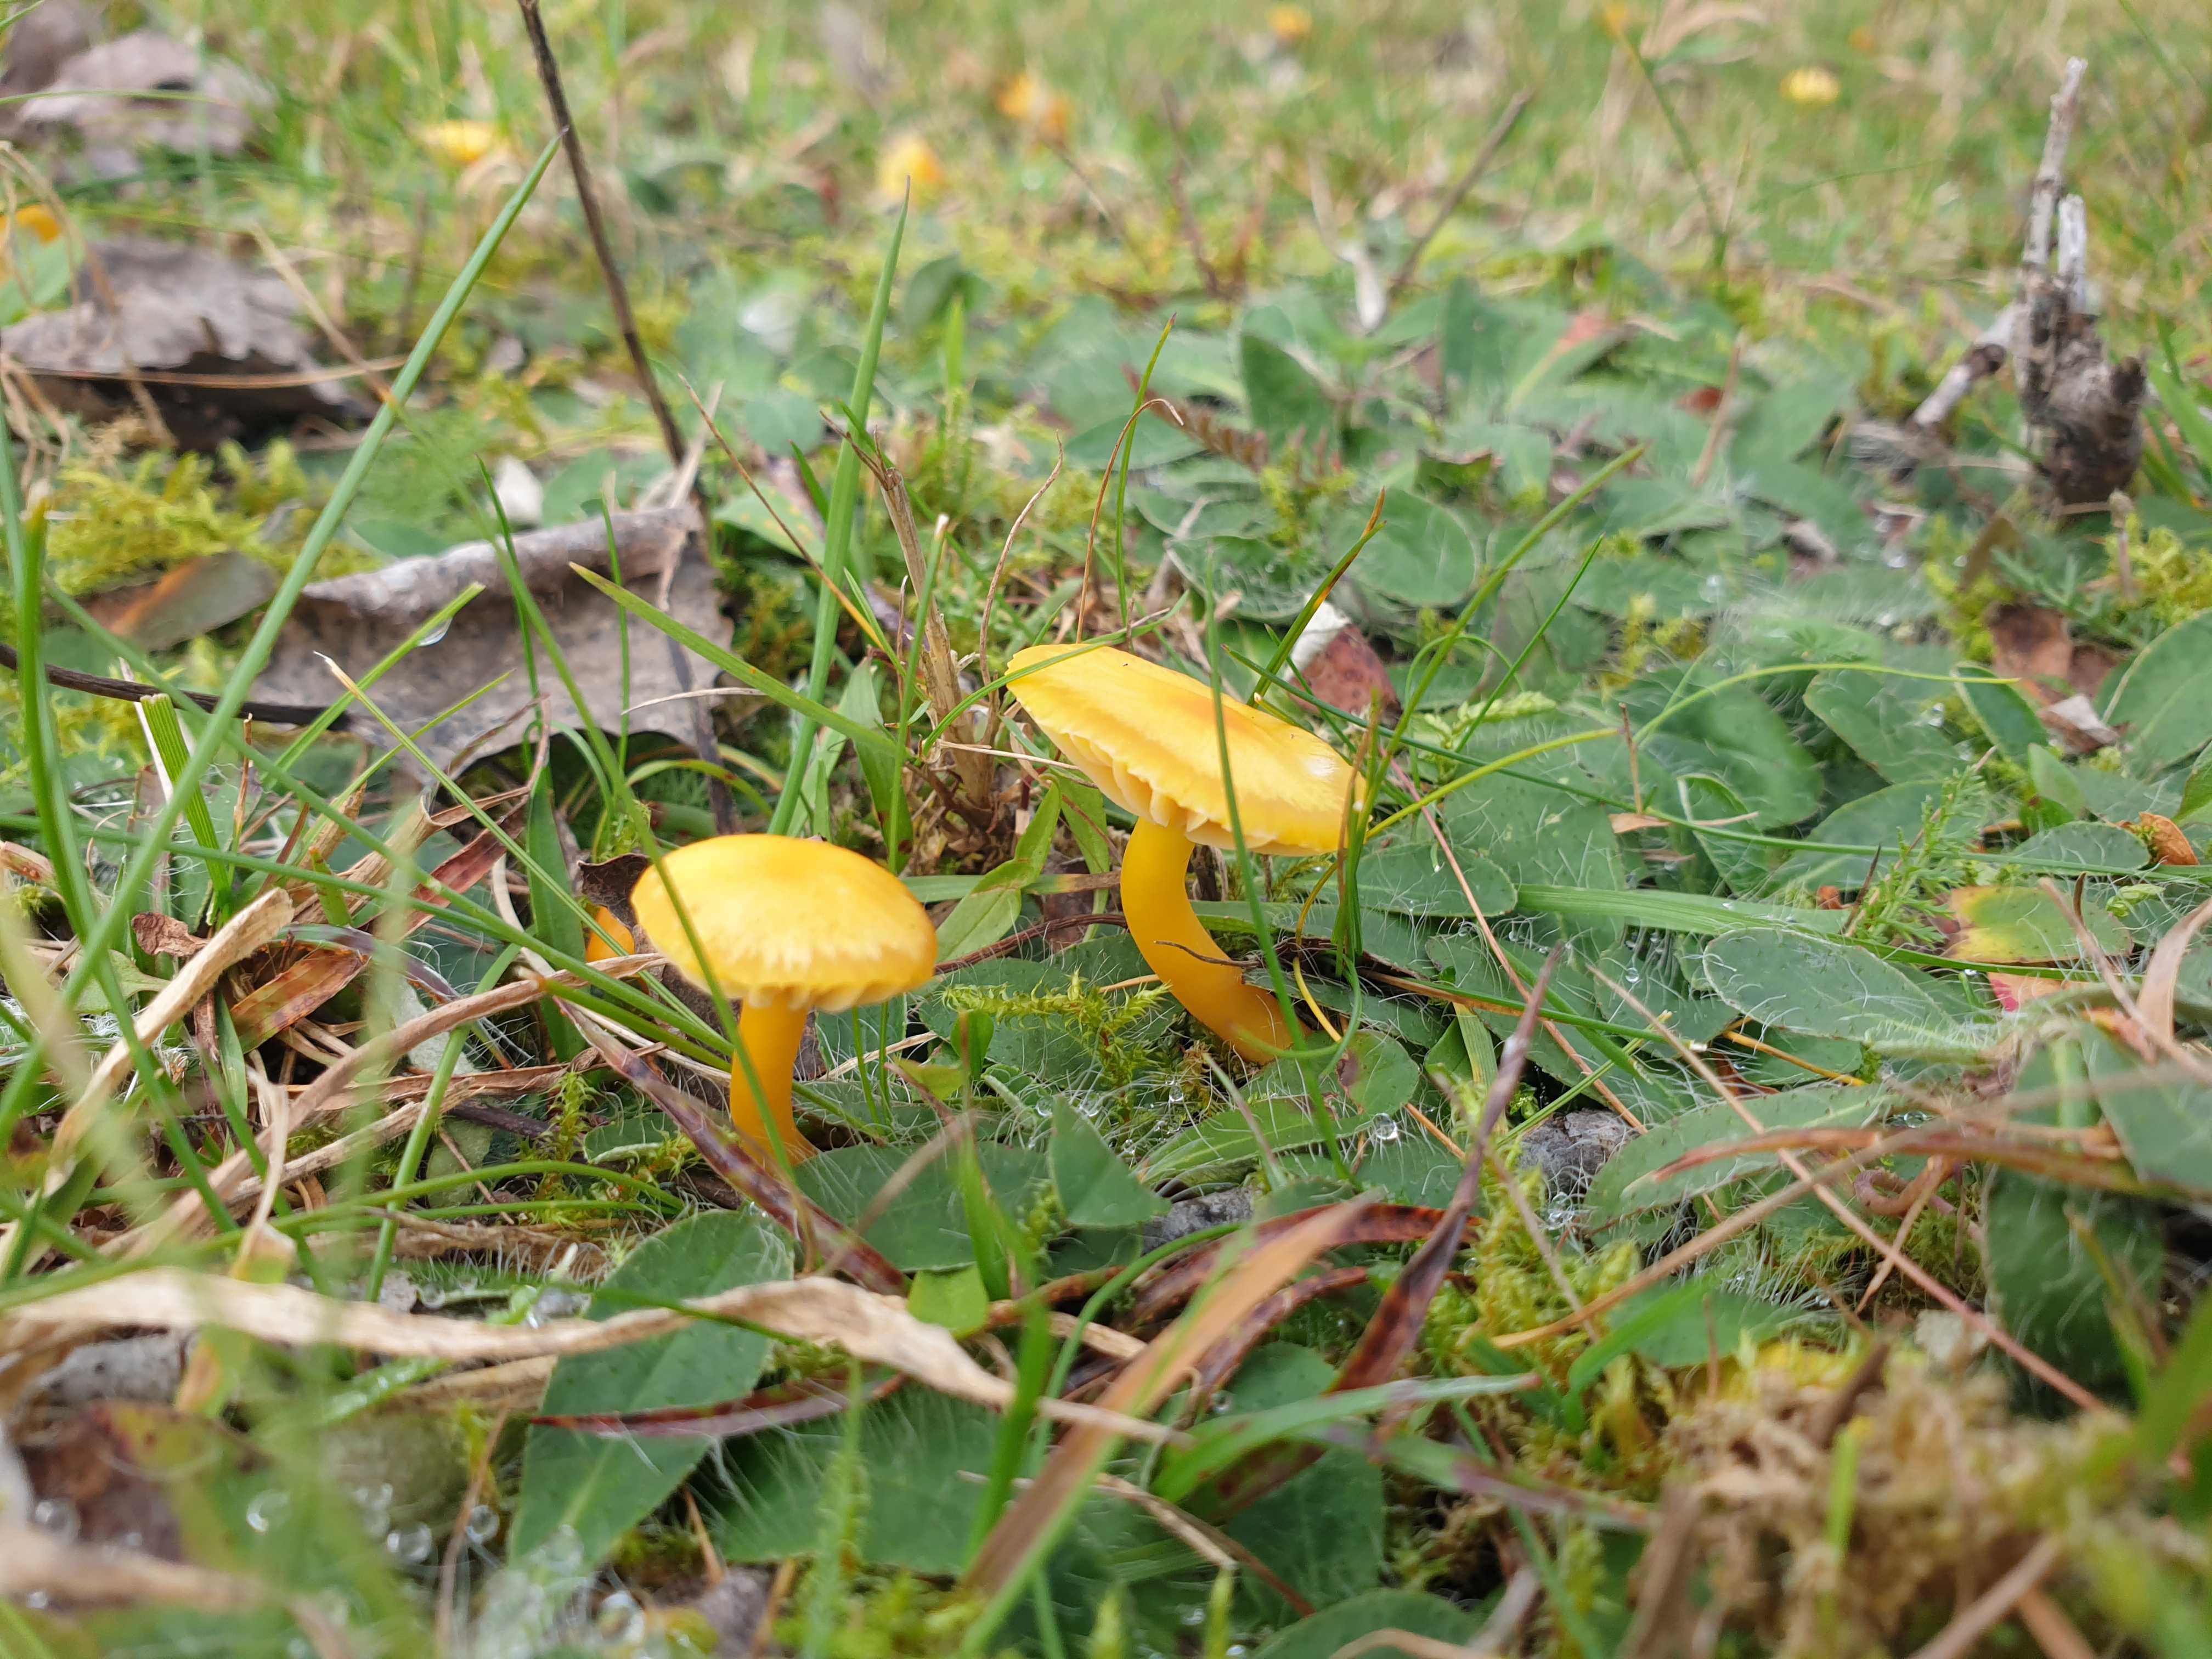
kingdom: Fungi
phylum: Basidiomycota
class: Agaricomycetes
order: Agaricales
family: Hygrophoraceae
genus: Hygrocybe
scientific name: Hygrocybe ceracea
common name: voksgul vokshat
